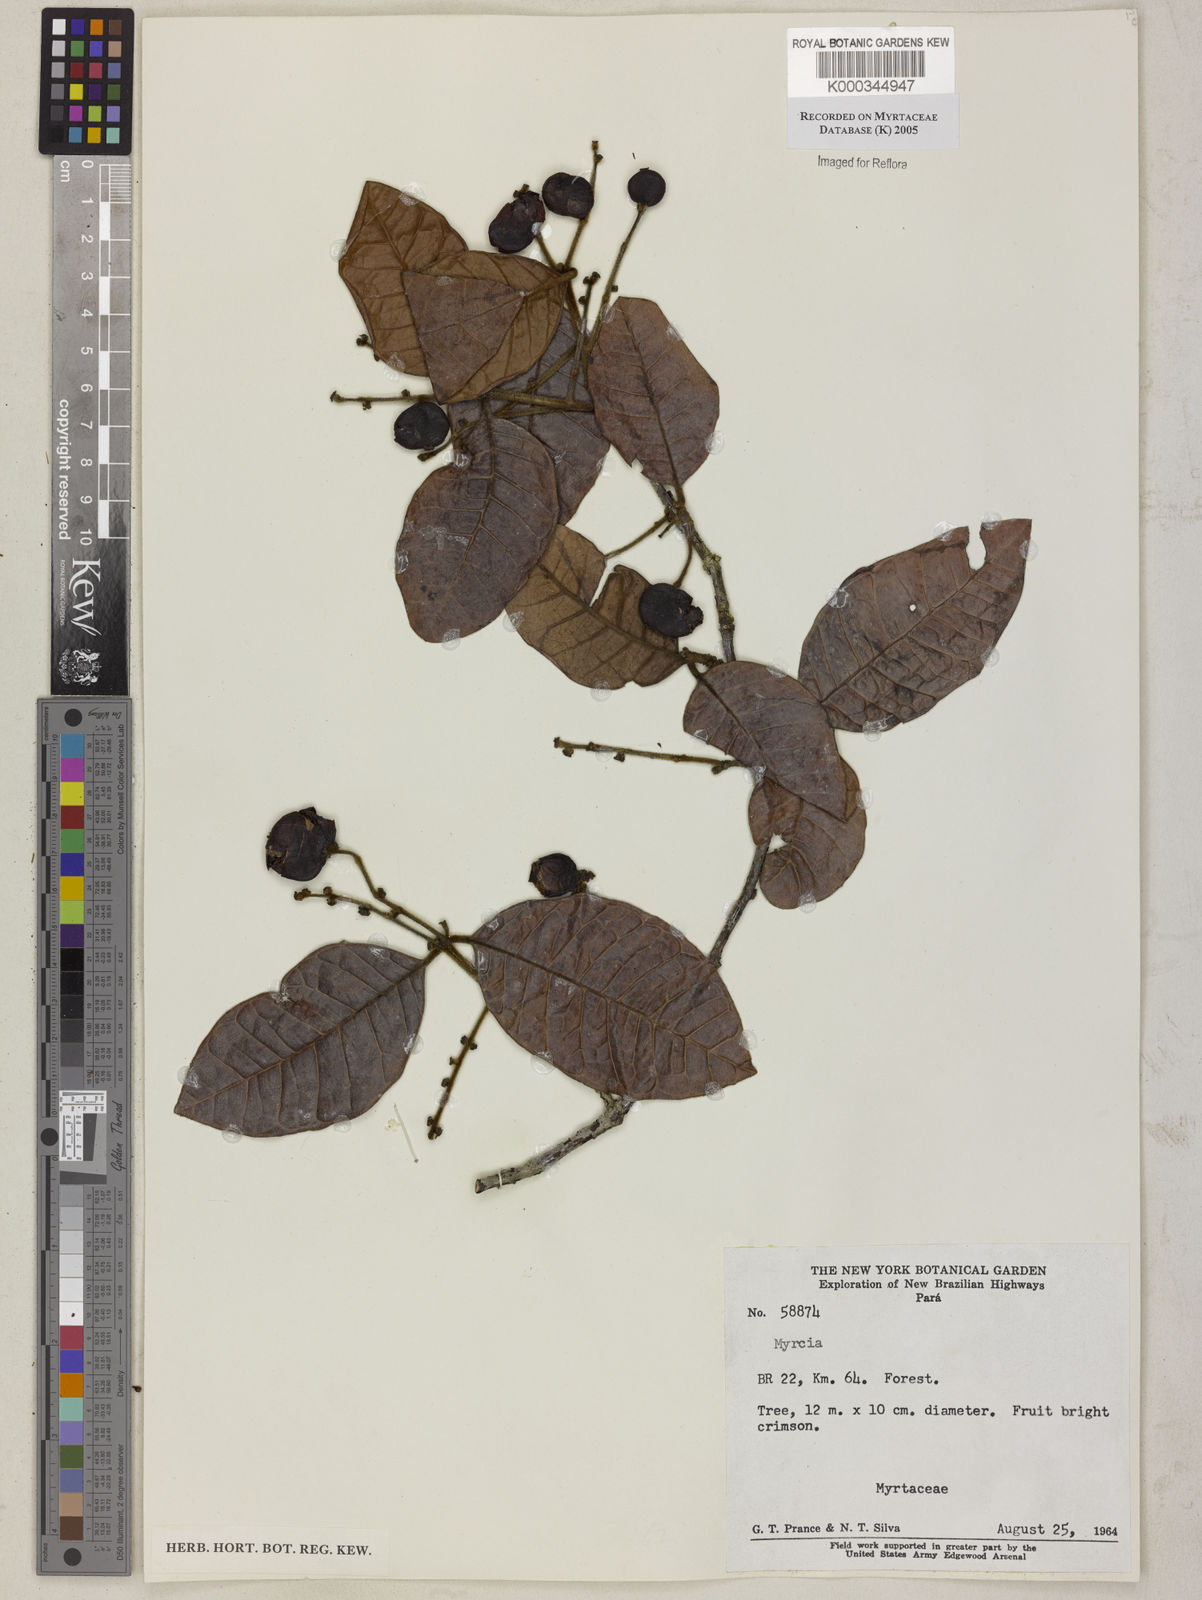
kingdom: Plantae
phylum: Tracheophyta
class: Magnoliopsida
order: Myrtales
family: Myrtaceae
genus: Myrcia
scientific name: Myrcia
